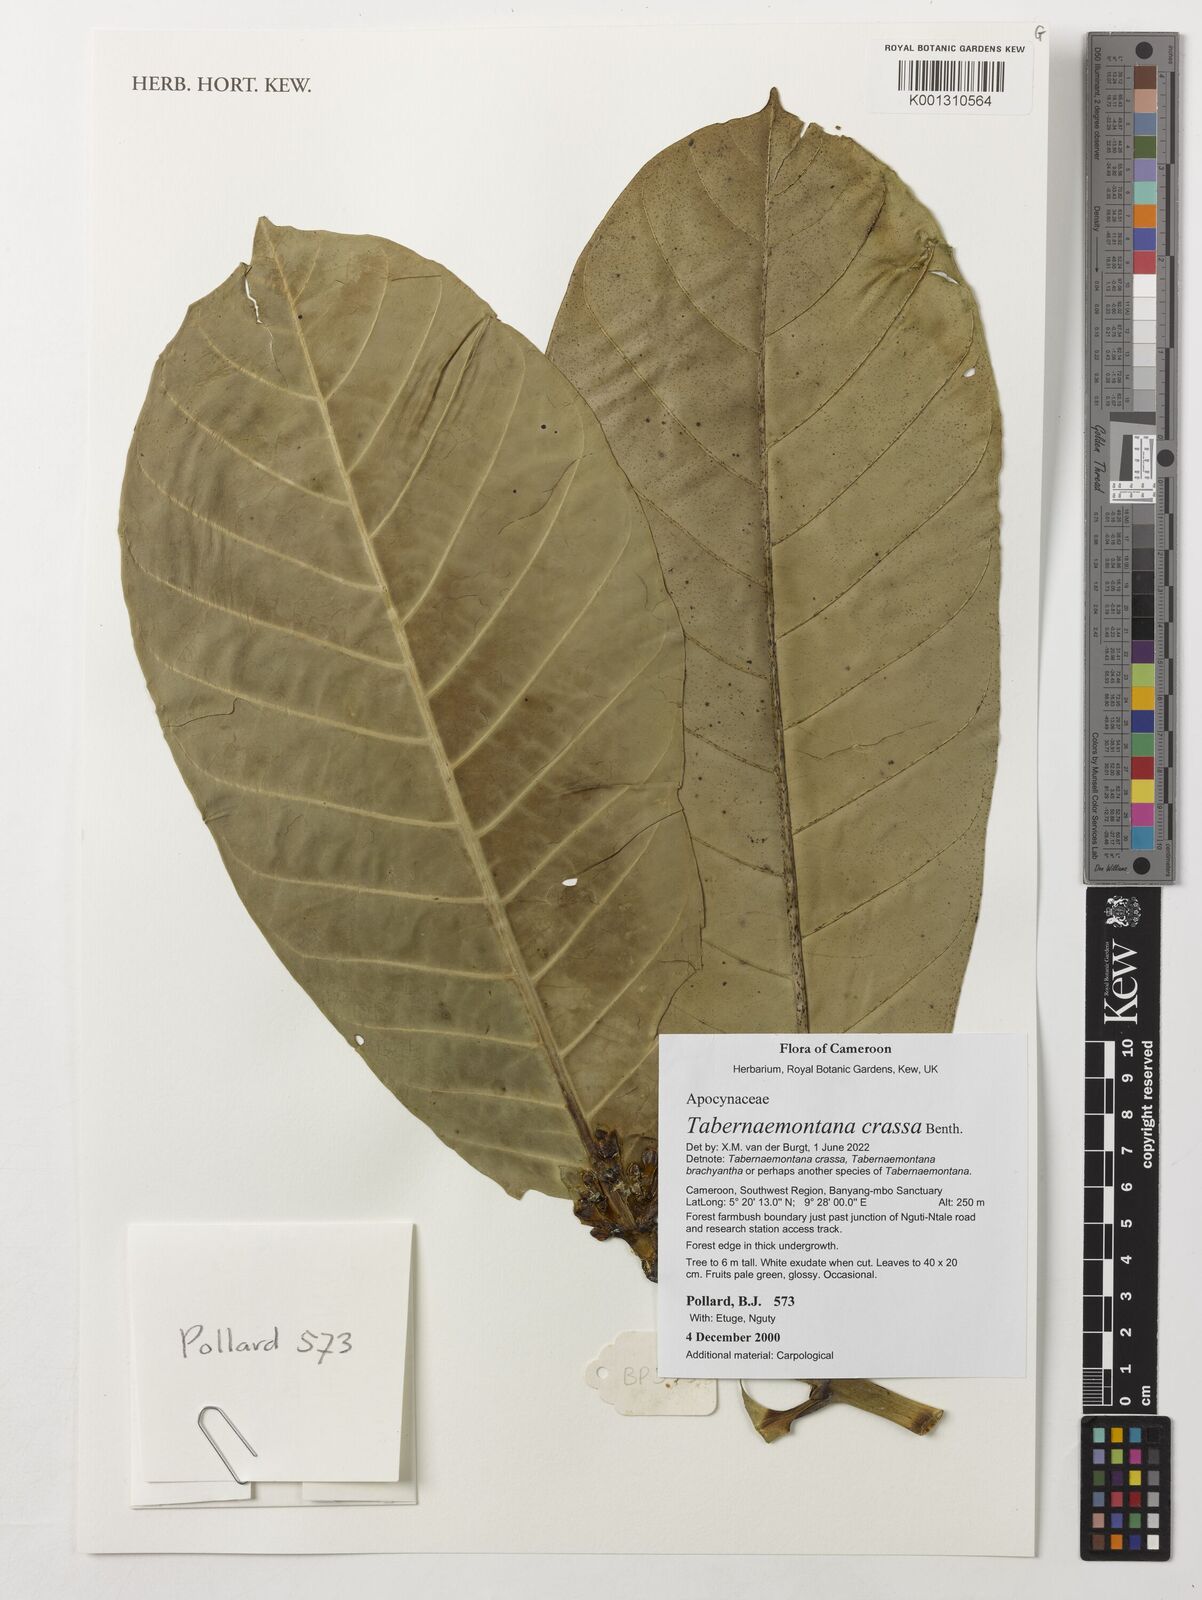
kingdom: Plantae
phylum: Tracheophyta
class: Magnoliopsida
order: Gentianales
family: Apocynaceae
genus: Tabernaemontana
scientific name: Tabernaemontana crassa
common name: Adam's-apple-flower
